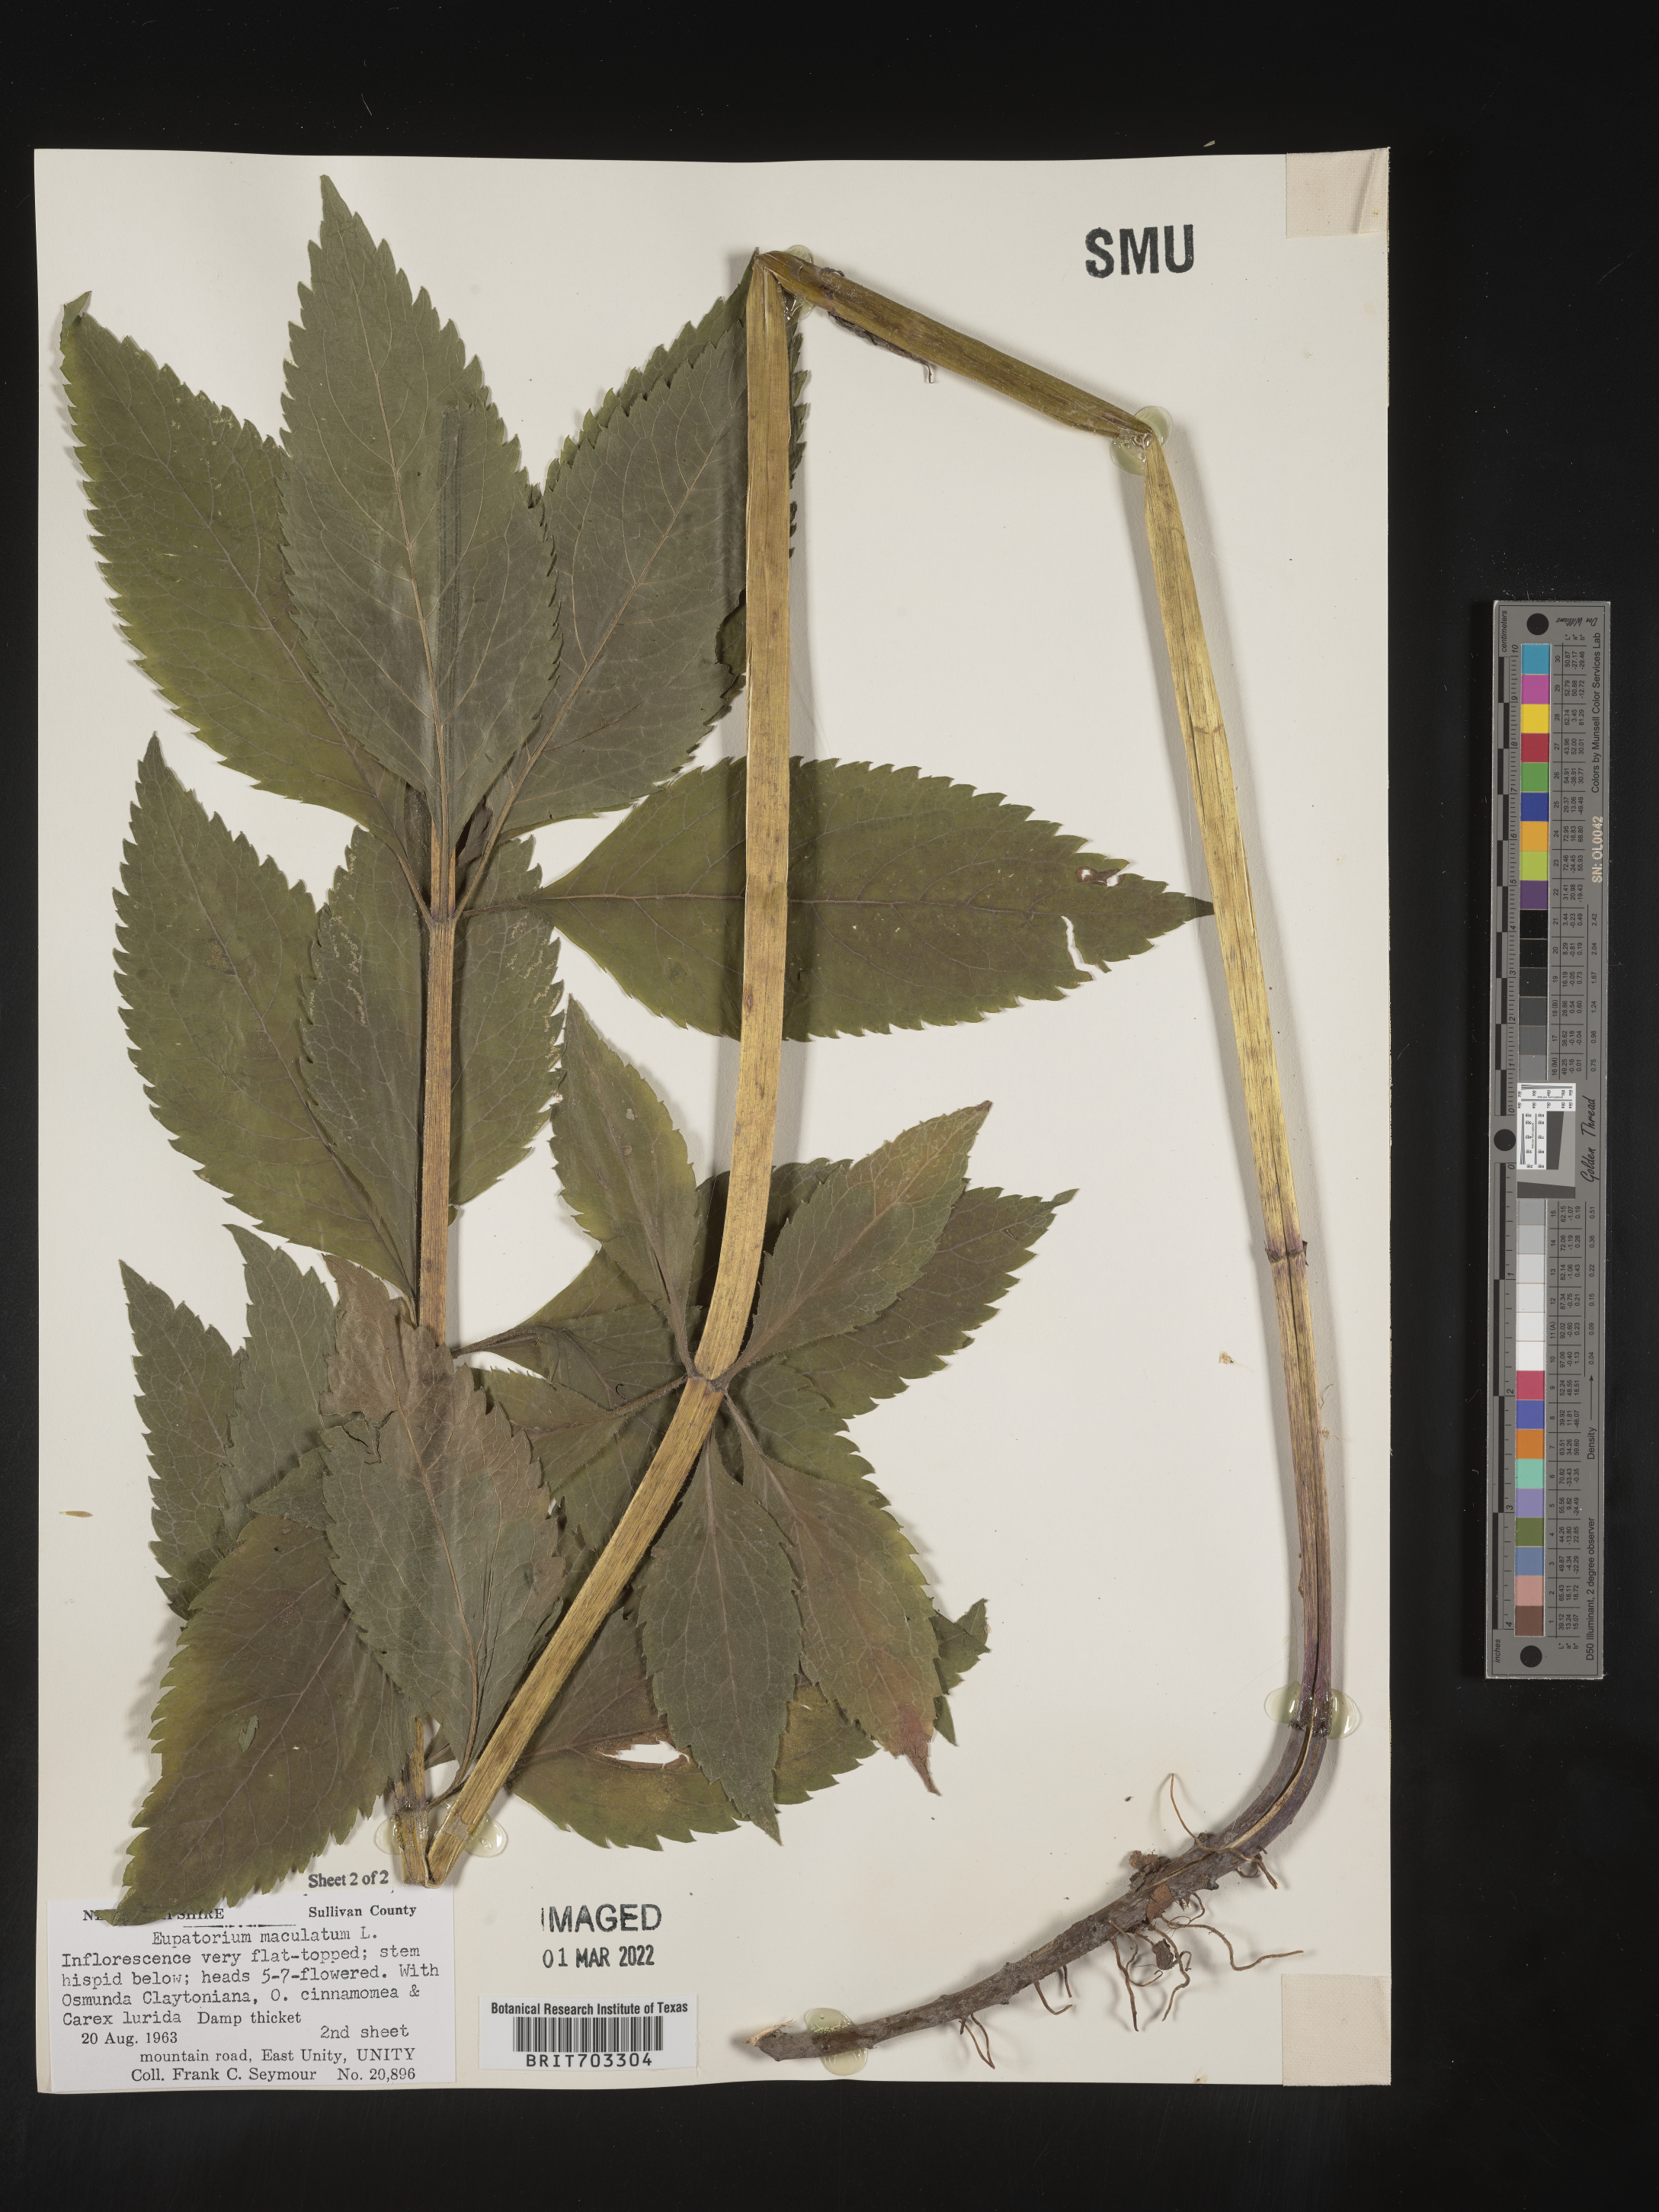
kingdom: Plantae
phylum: Tracheophyta
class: Magnoliopsida
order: Asterales
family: Asteraceae
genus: Eutrochium
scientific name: Eutrochium maculatum
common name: Spotted joe pye weed
